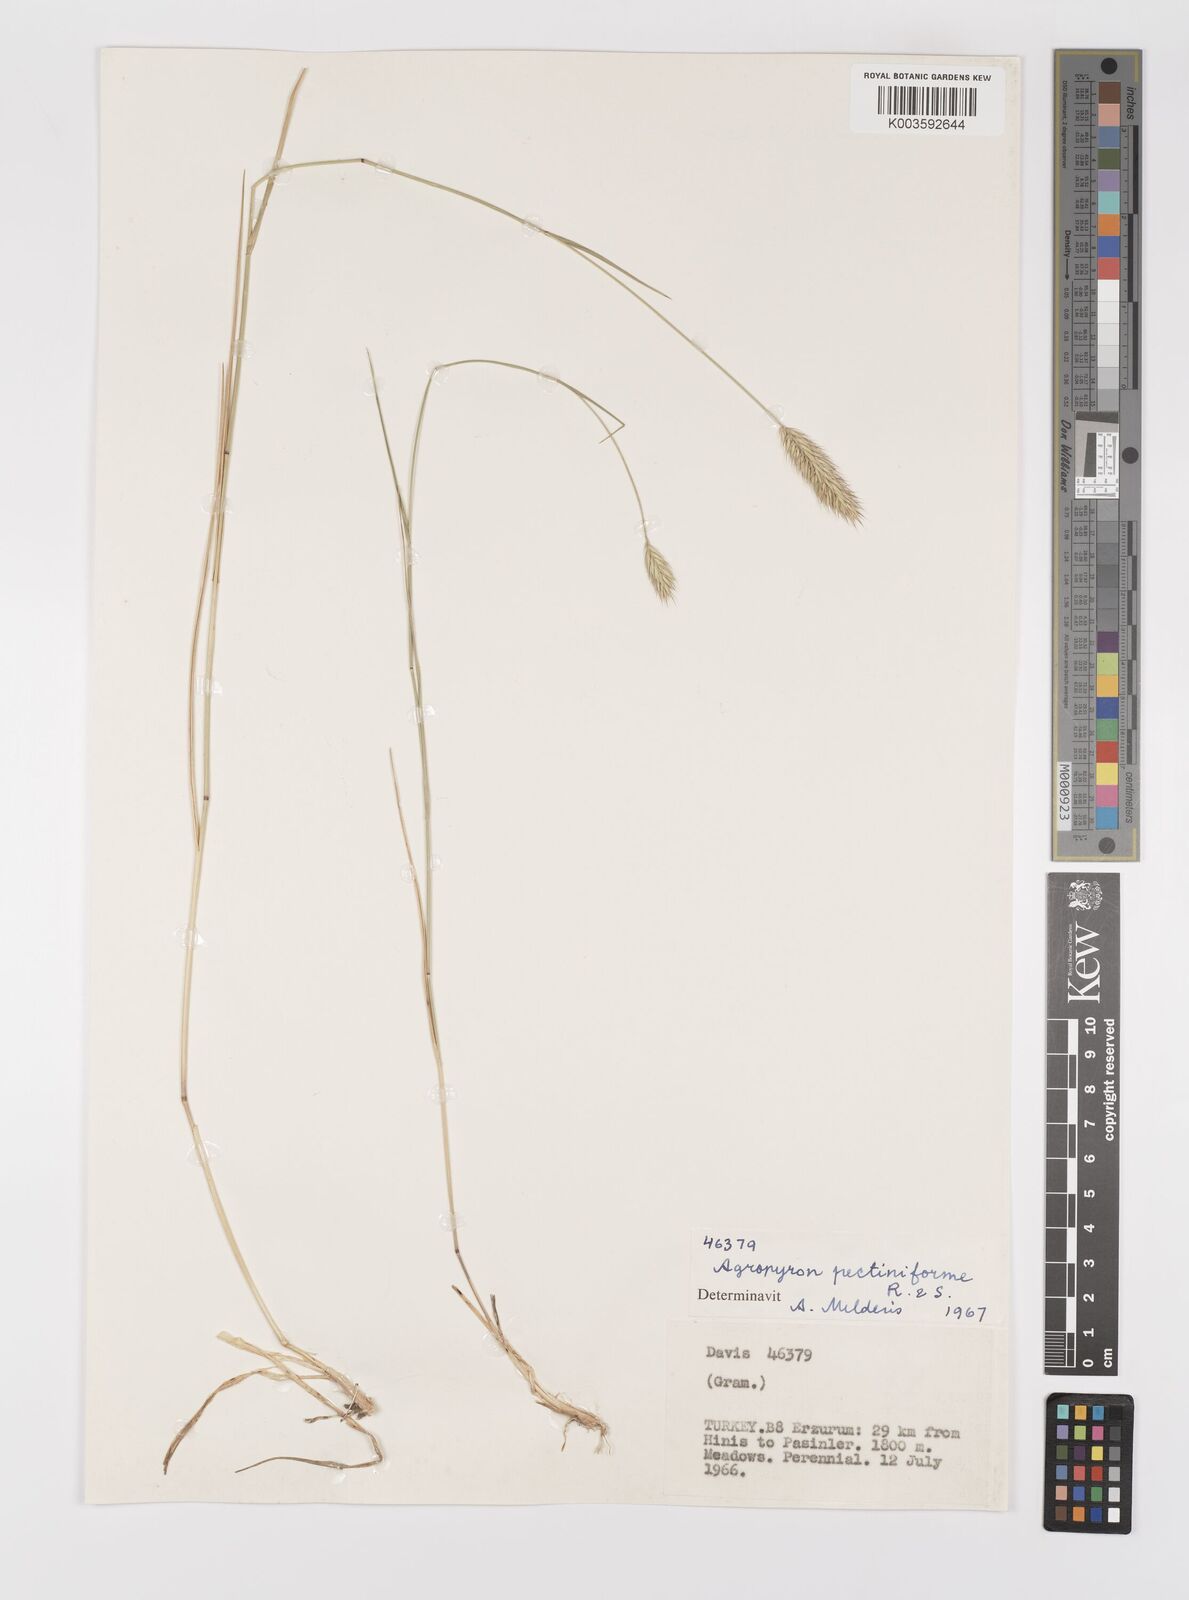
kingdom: Plantae
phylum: Tracheophyta
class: Liliopsida
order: Poales
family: Poaceae
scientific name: Poaceae
